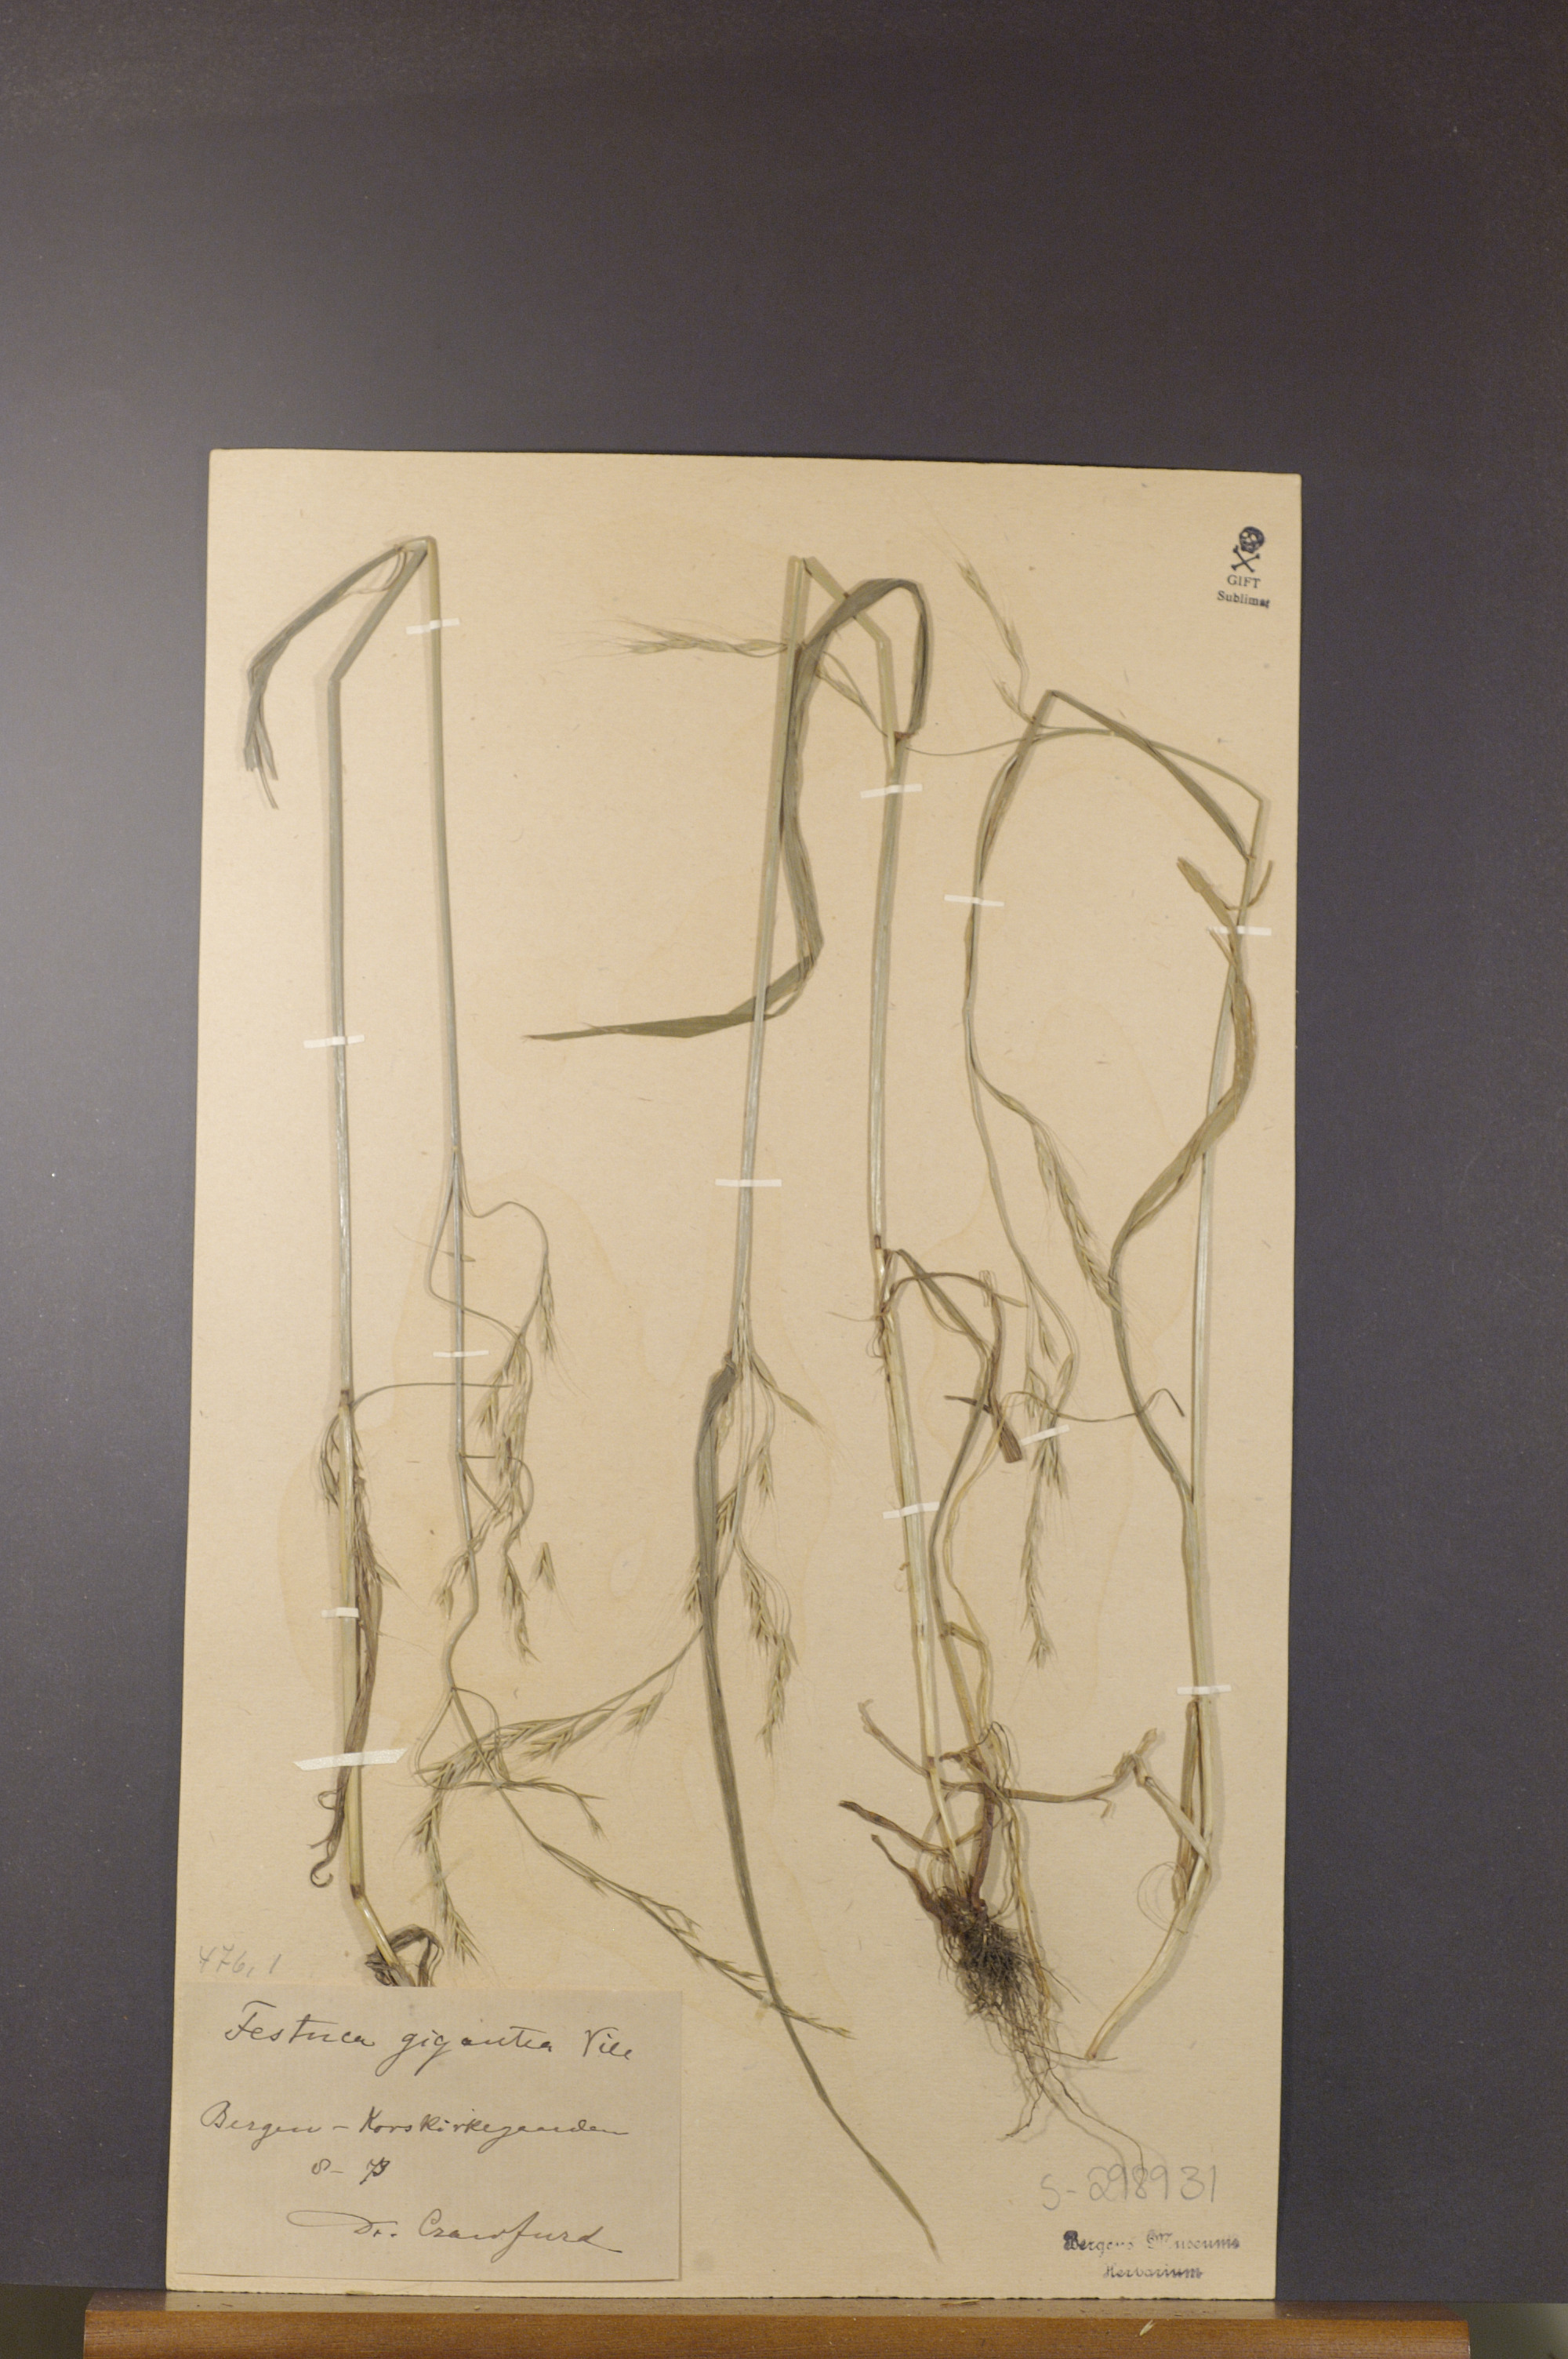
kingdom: Plantae
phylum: Tracheophyta
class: Liliopsida
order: Poales
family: Poaceae
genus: Lolium
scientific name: Lolium giganteum
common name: Giant fescue
